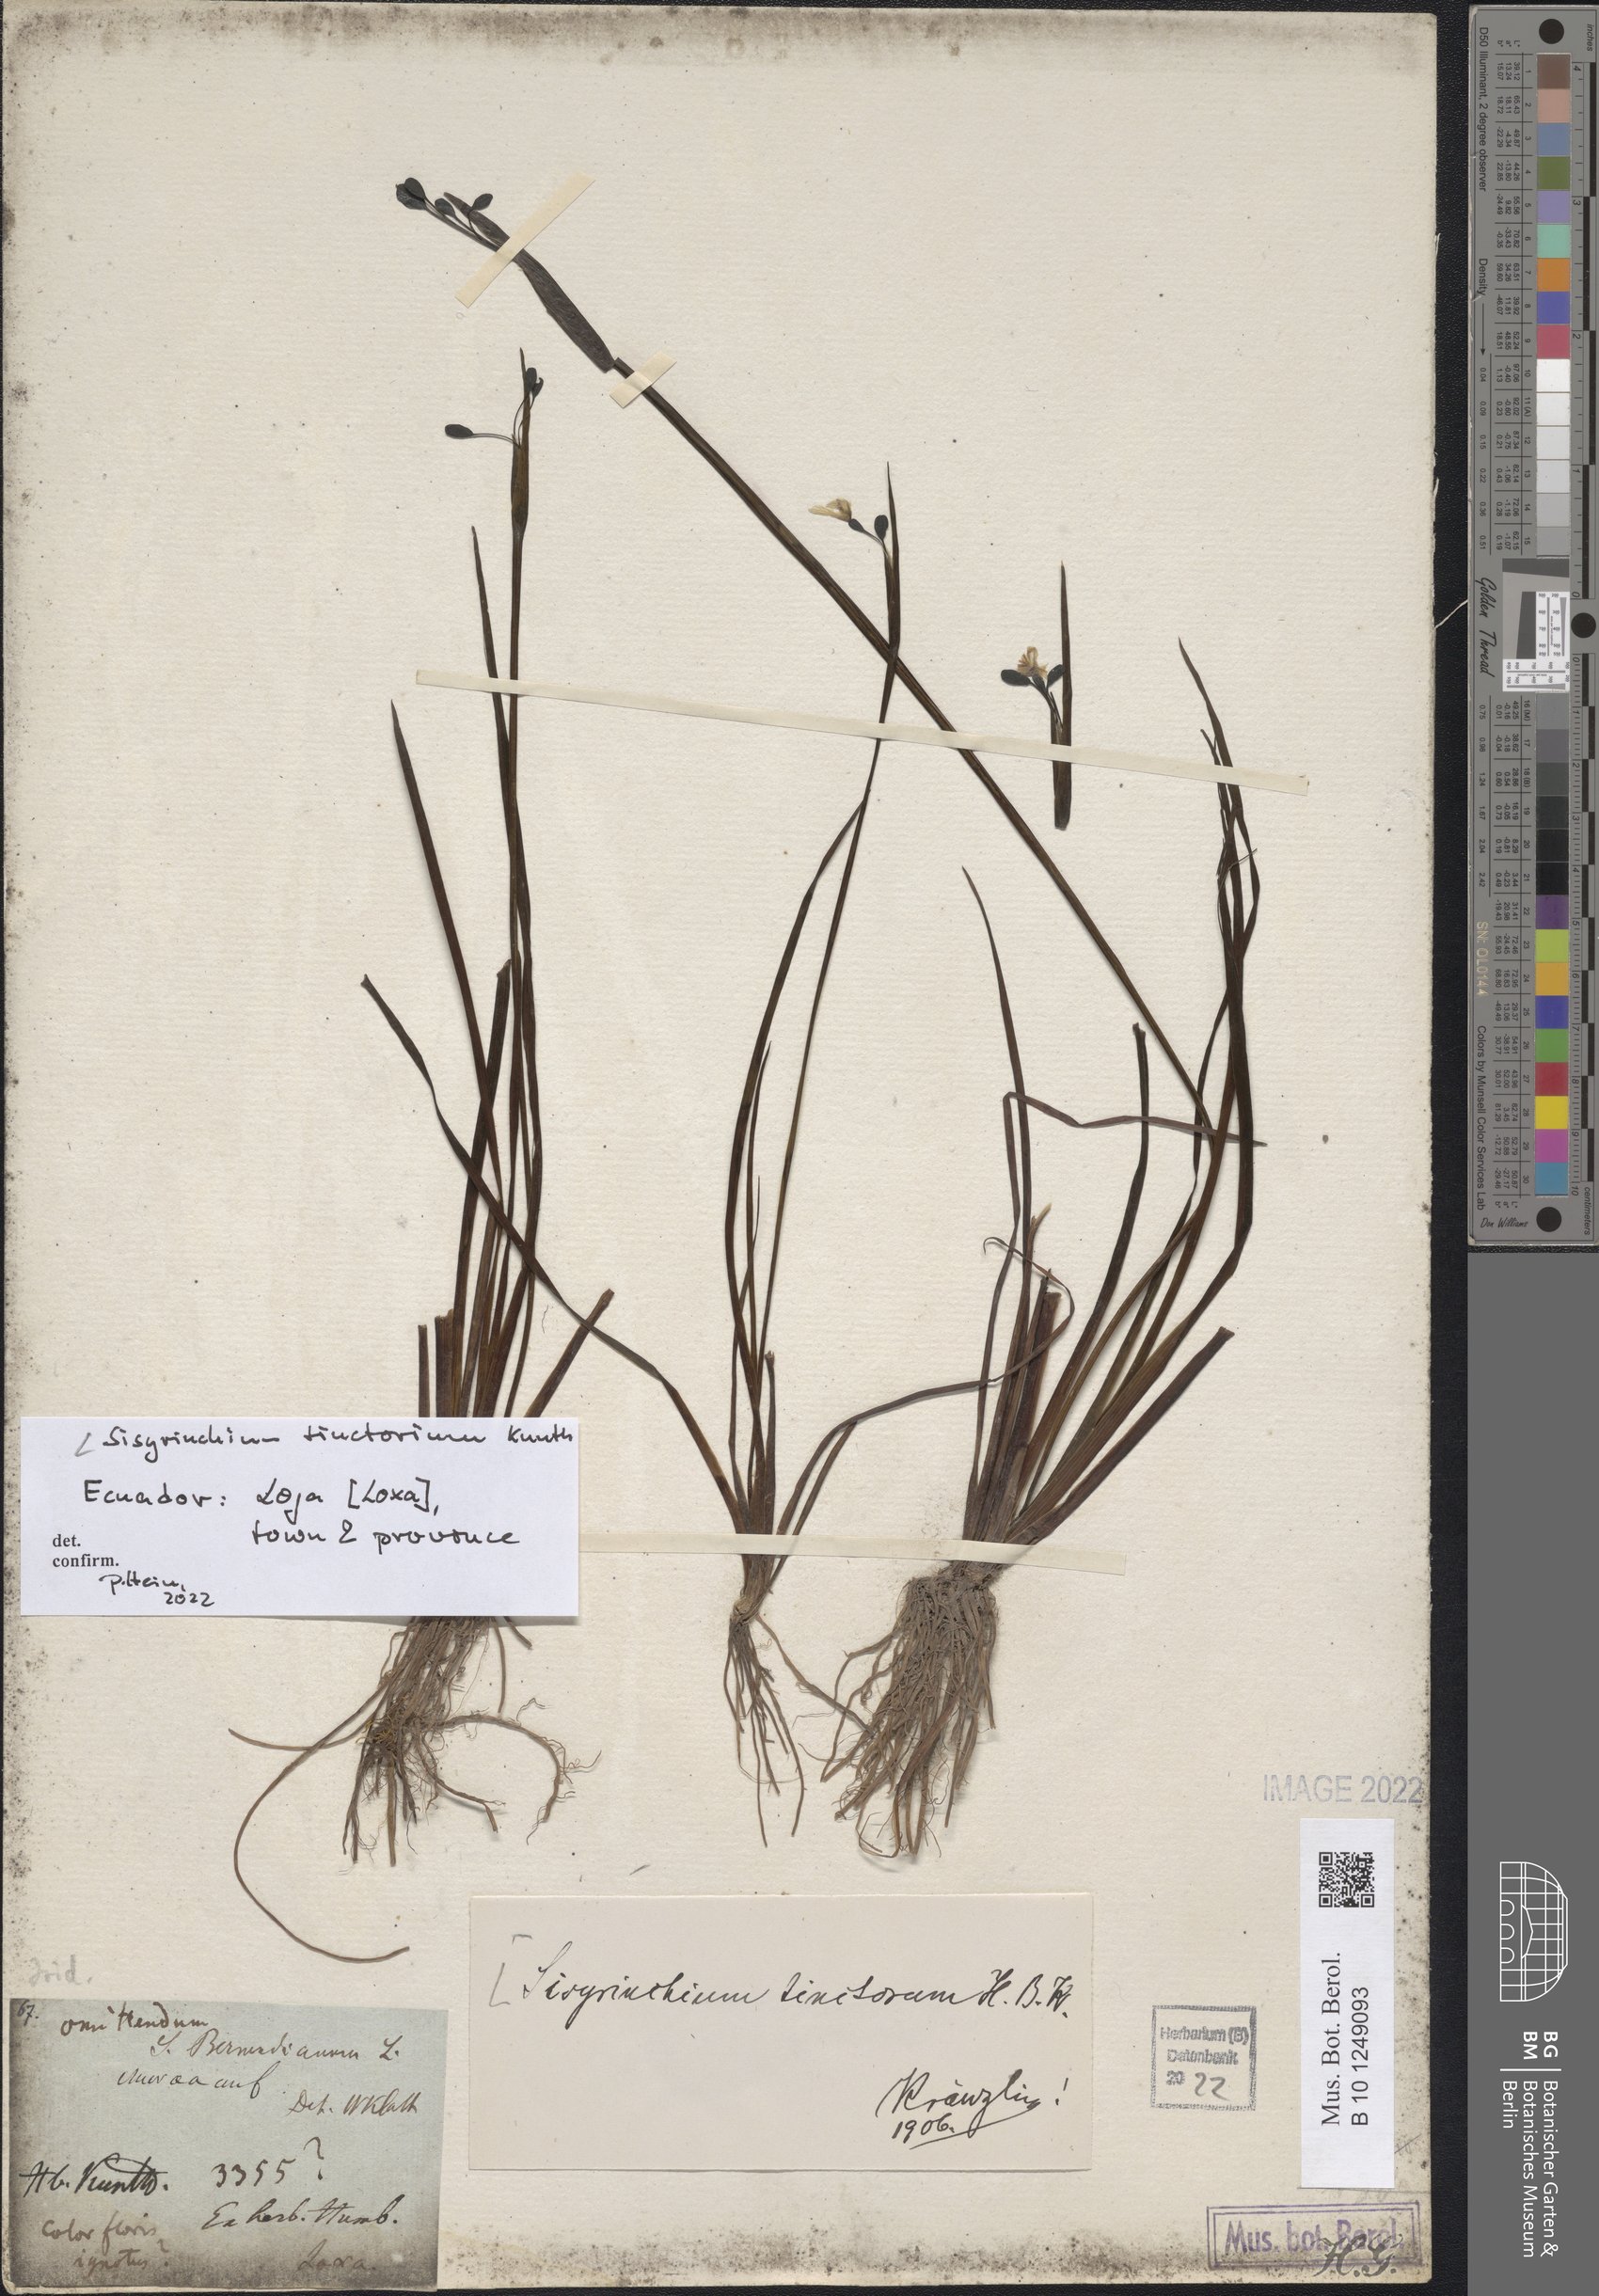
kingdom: Plantae
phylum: Tracheophyta
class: Liliopsida
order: Asparagales
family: Iridaceae
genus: Sisyrinchium
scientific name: Sisyrinchium tinctorium
